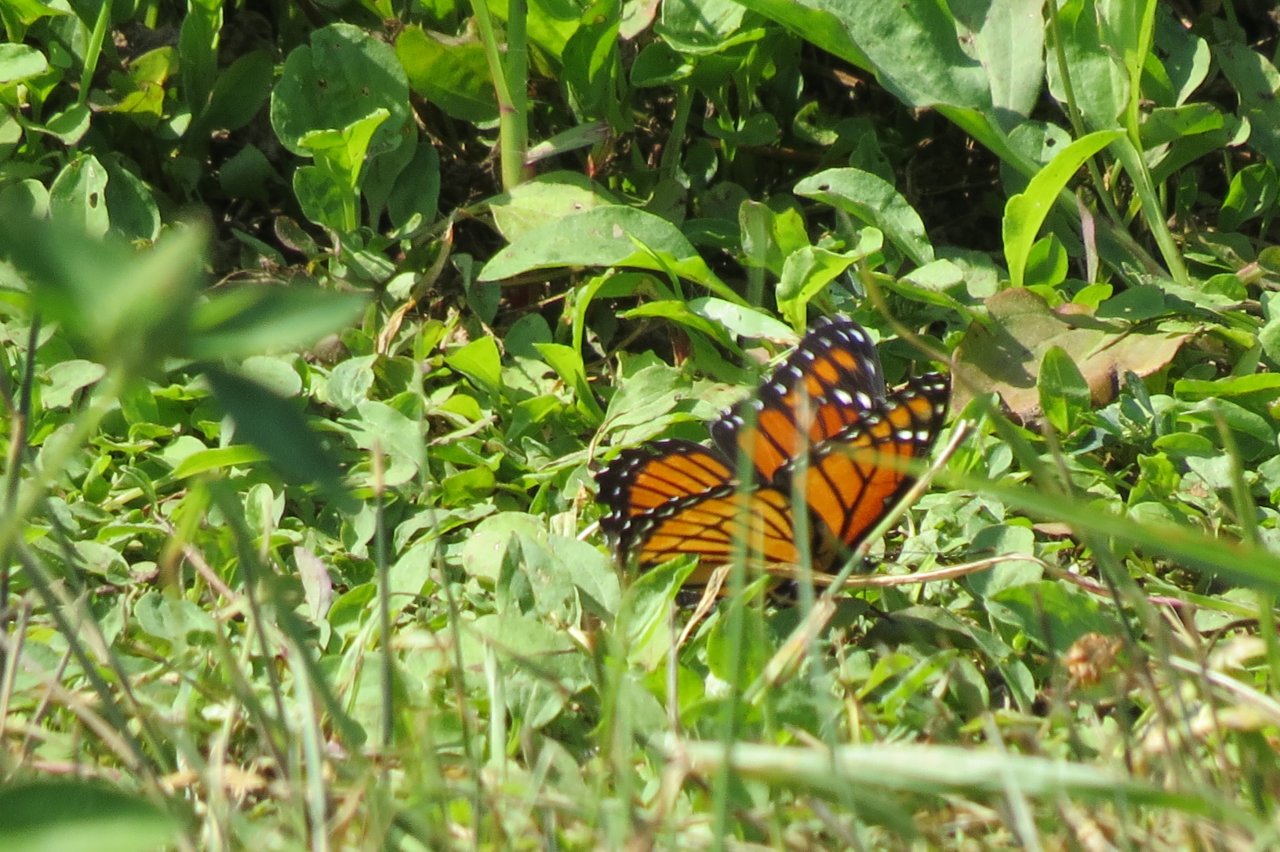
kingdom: Animalia
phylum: Arthropoda
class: Insecta
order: Lepidoptera
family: Nymphalidae
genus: Limenitis
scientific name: Limenitis archippus
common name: Viceroy
